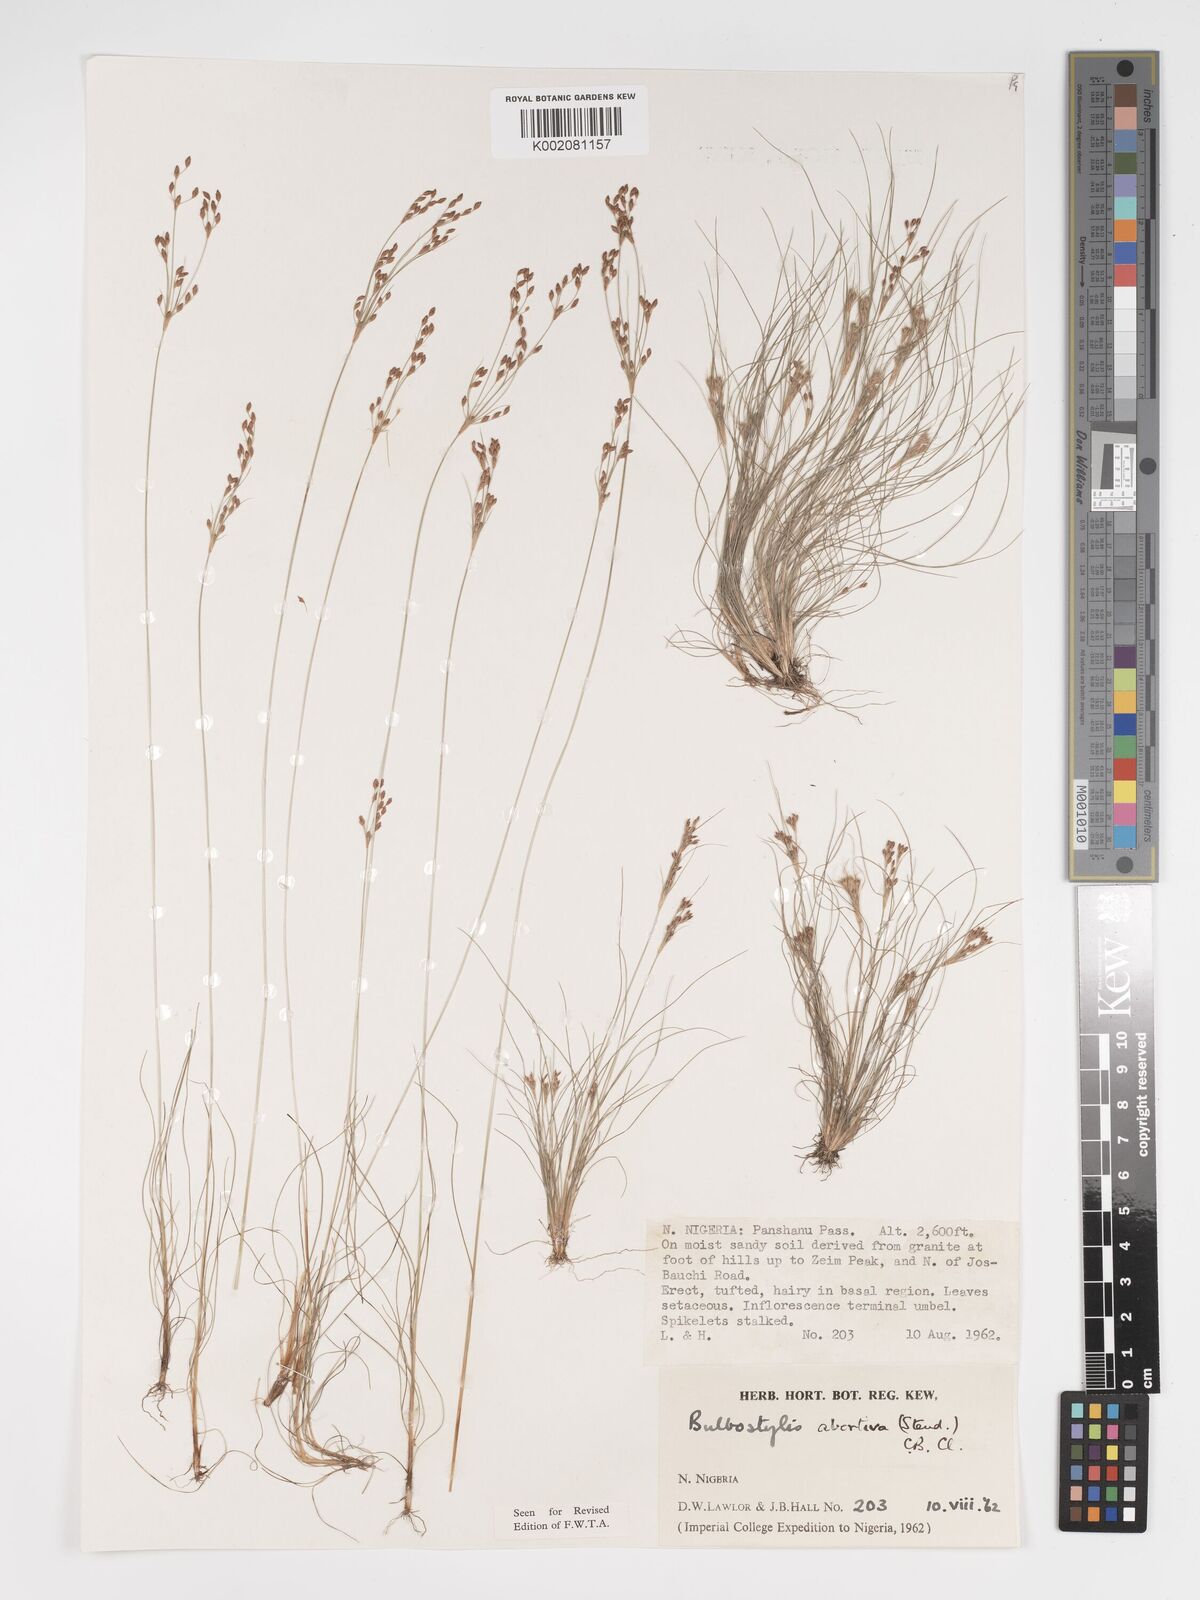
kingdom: Plantae
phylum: Tracheophyta
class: Liliopsida
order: Poales
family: Cyperaceae
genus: Bulbostylis
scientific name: Bulbostylis abortiva
